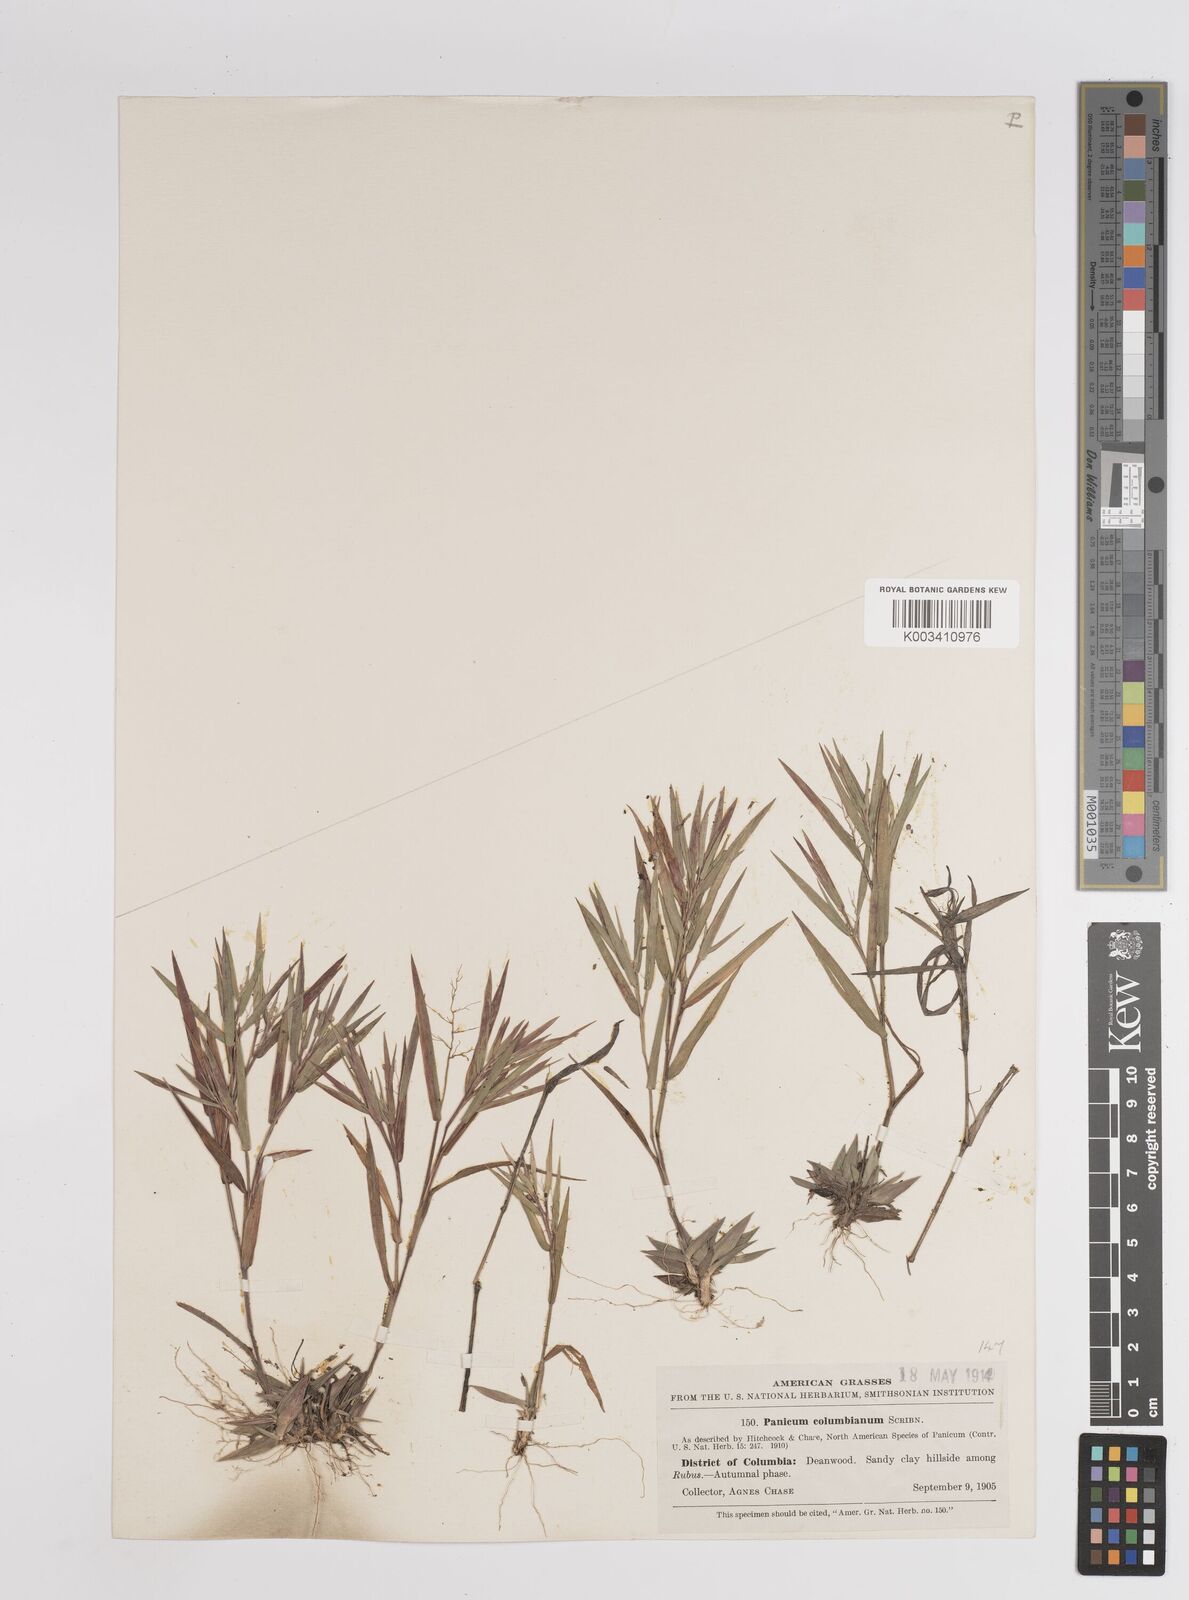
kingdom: Plantae
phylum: Tracheophyta
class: Liliopsida
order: Poales
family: Poaceae
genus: Dichanthelium
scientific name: Dichanthelium columbianum
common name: Hemlock panic grass
